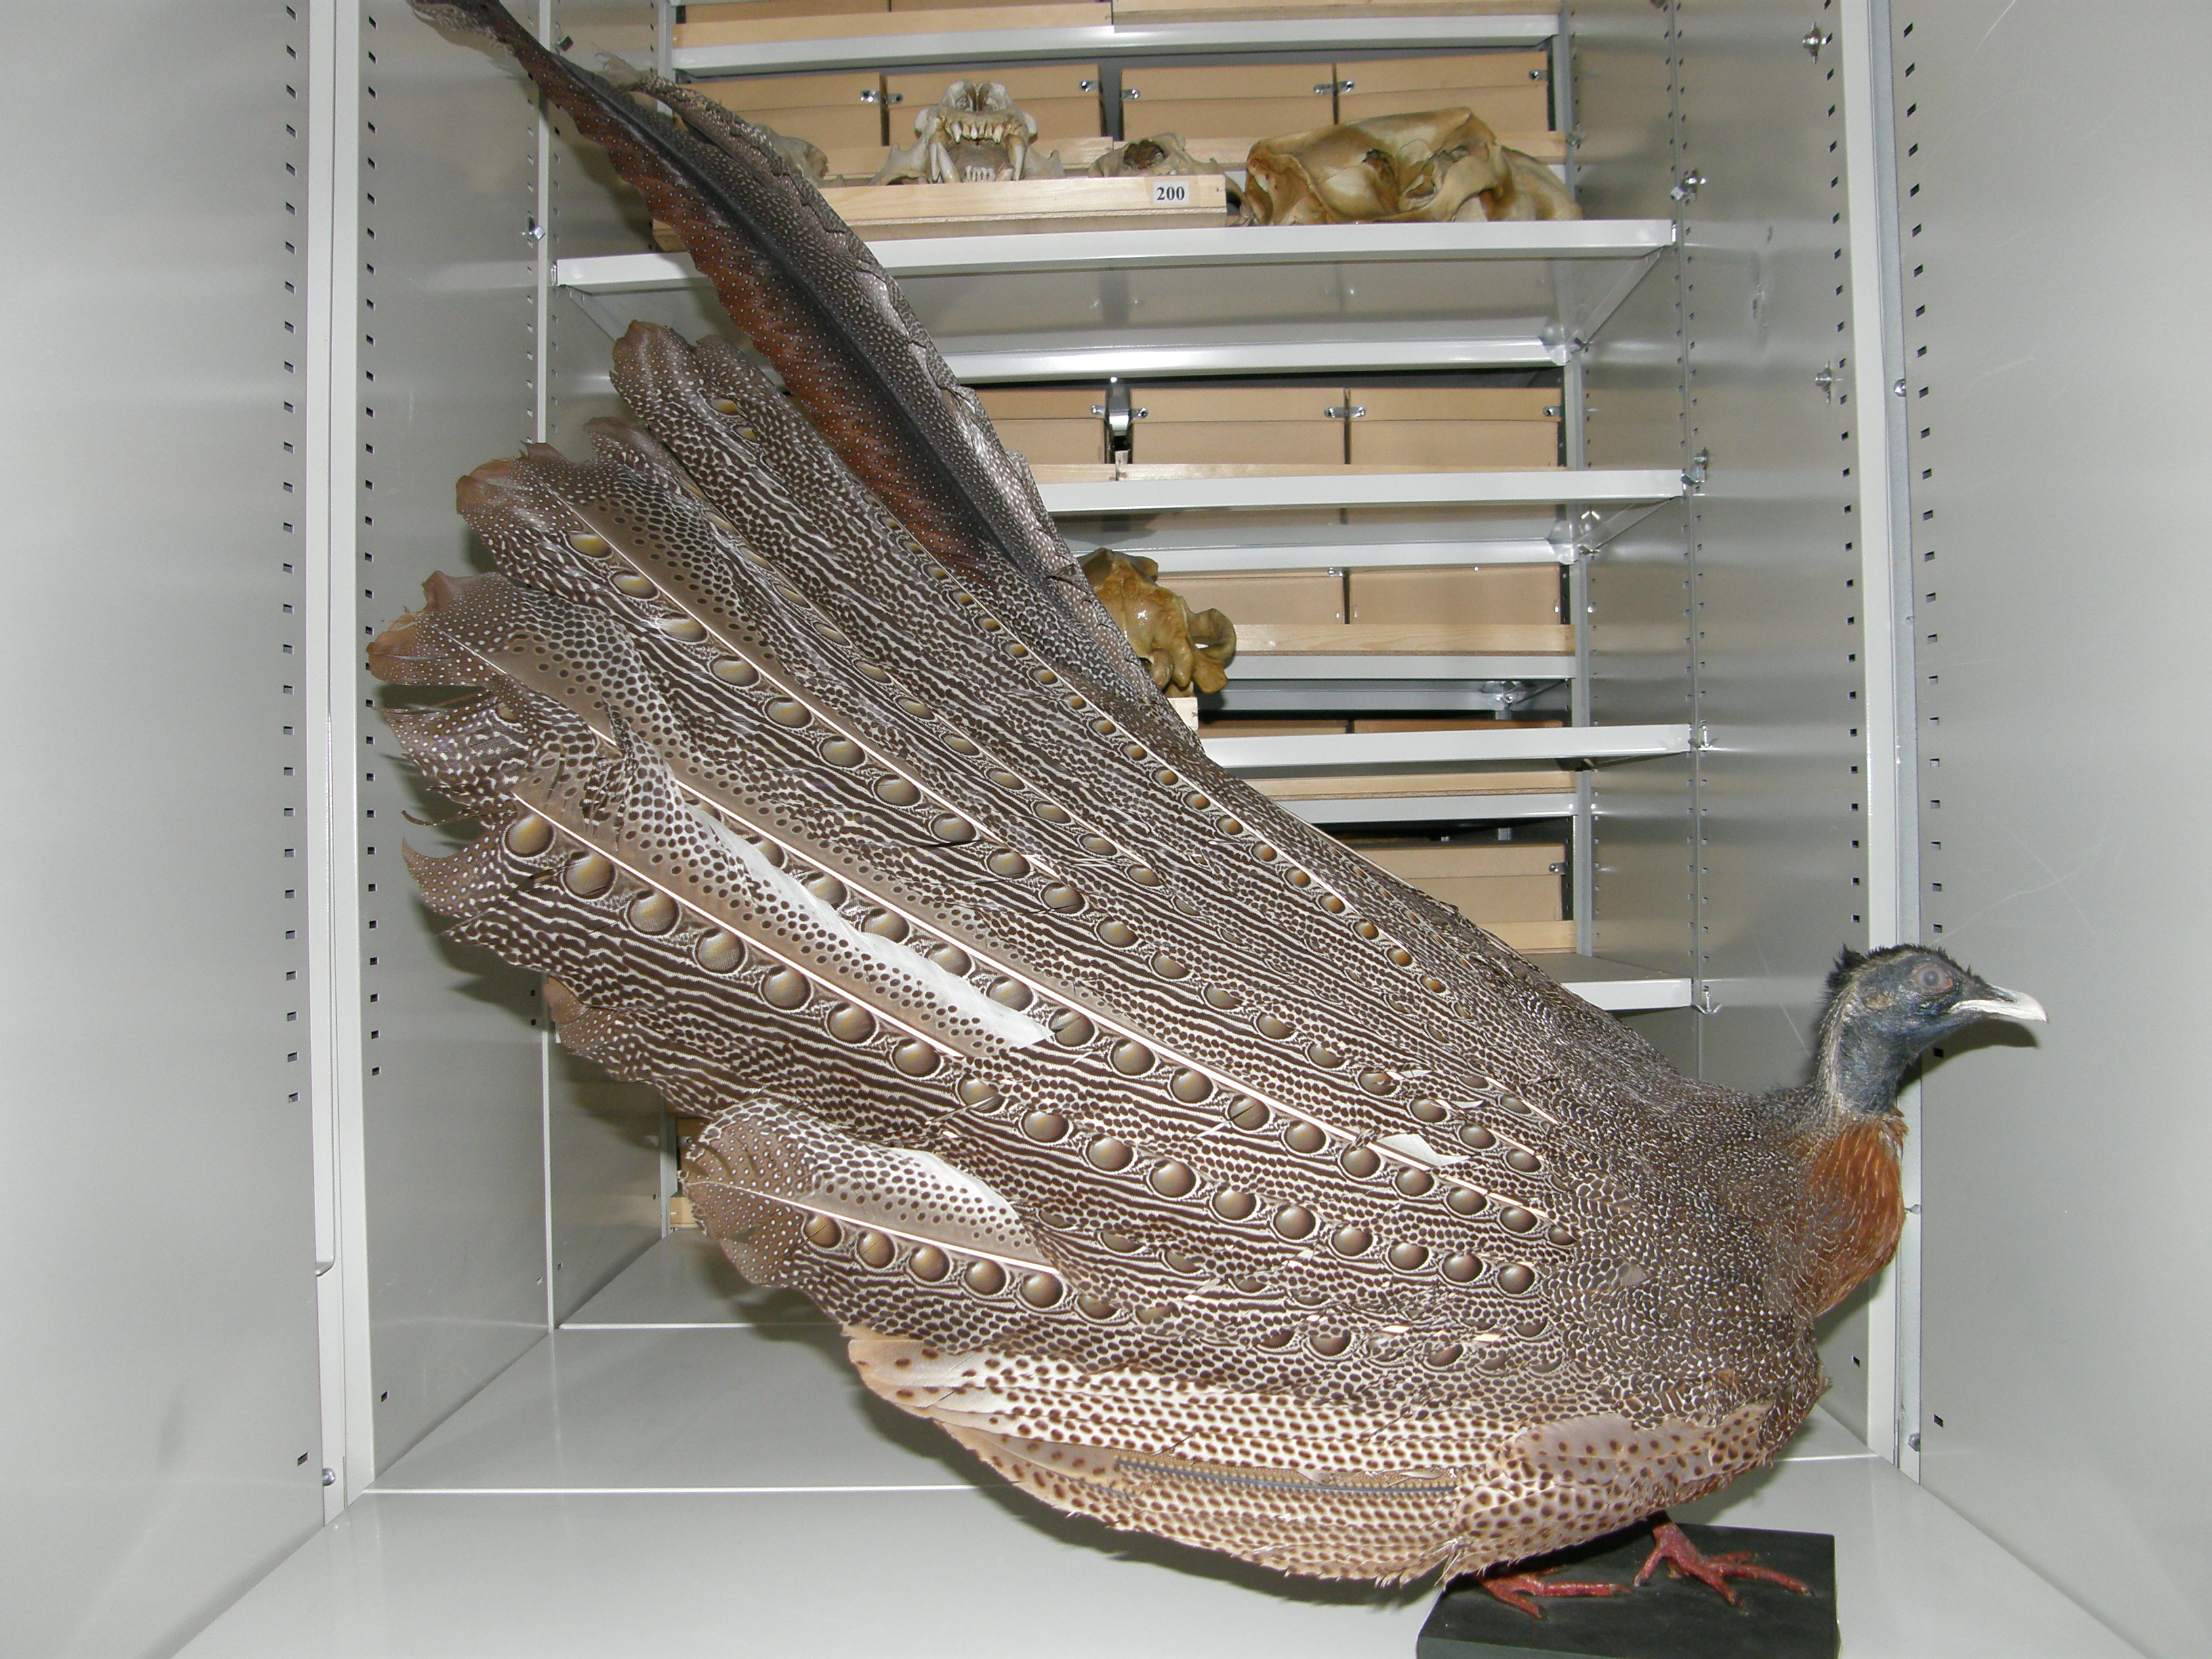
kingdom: Animalia
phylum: Chordata
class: Aves
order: Galliformes
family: Phasianidae
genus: Argusianus
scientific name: Argusianus argus
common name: Great argus
